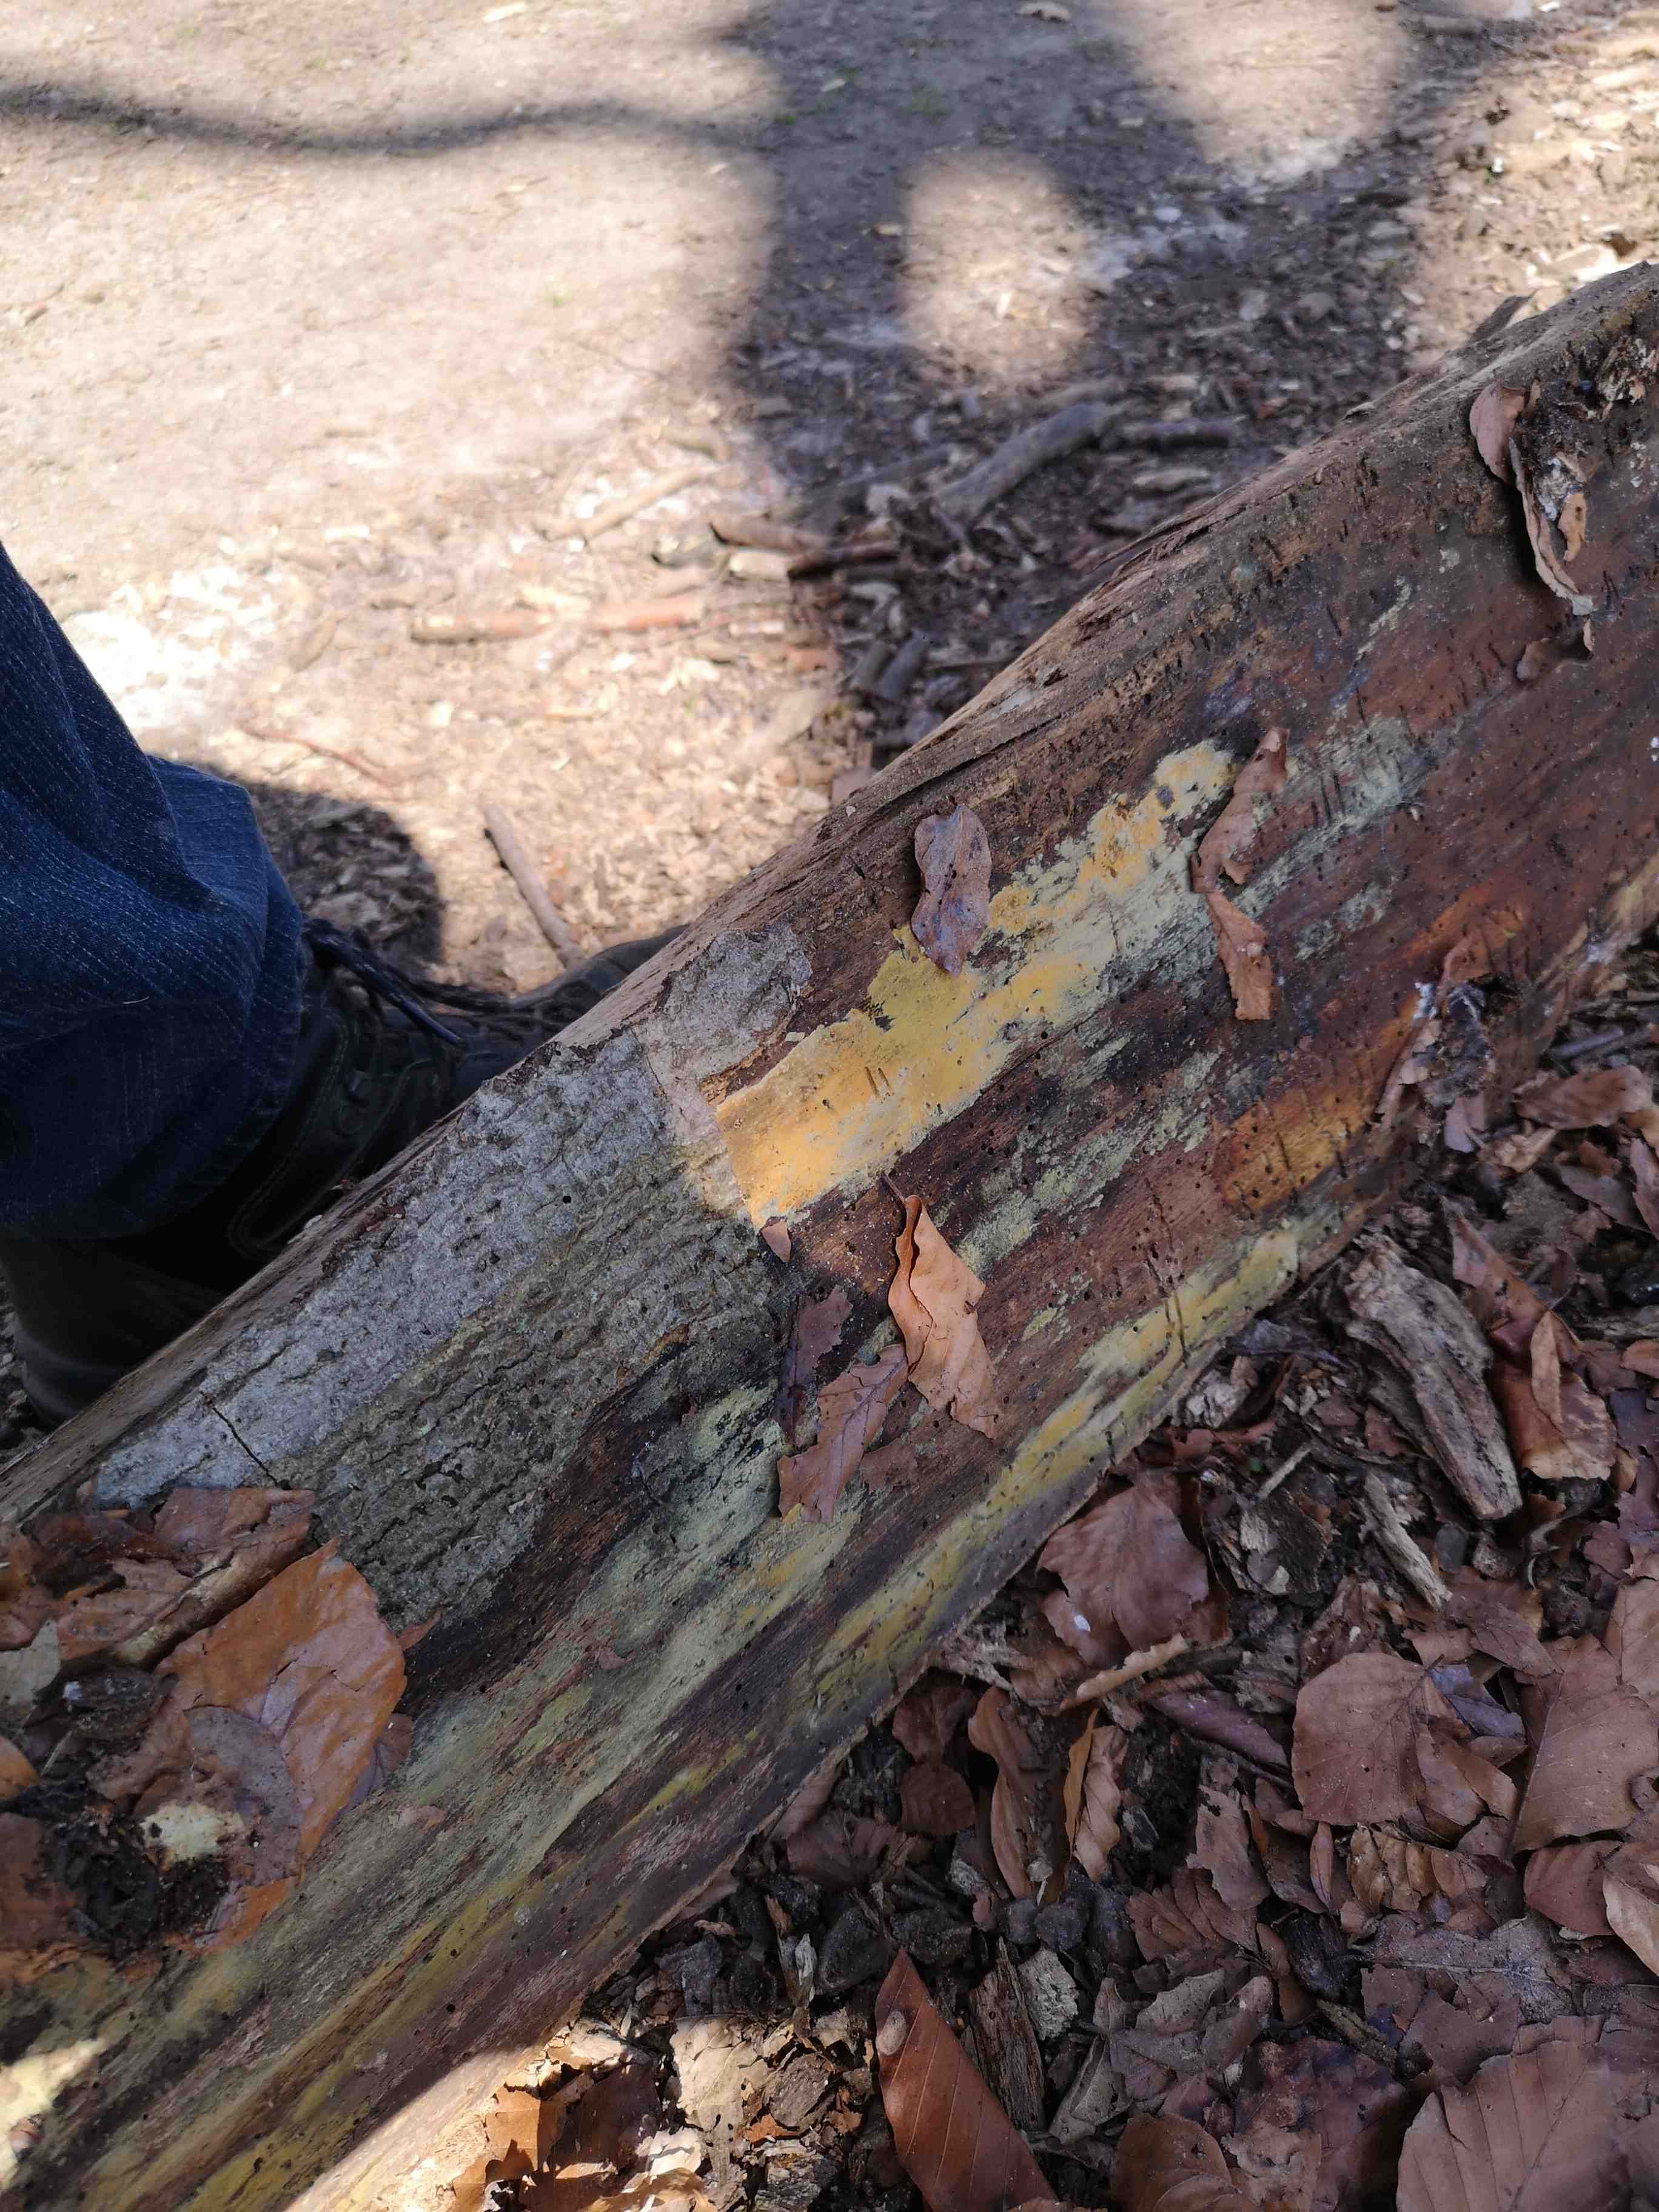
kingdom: Fungi
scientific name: Fungi
